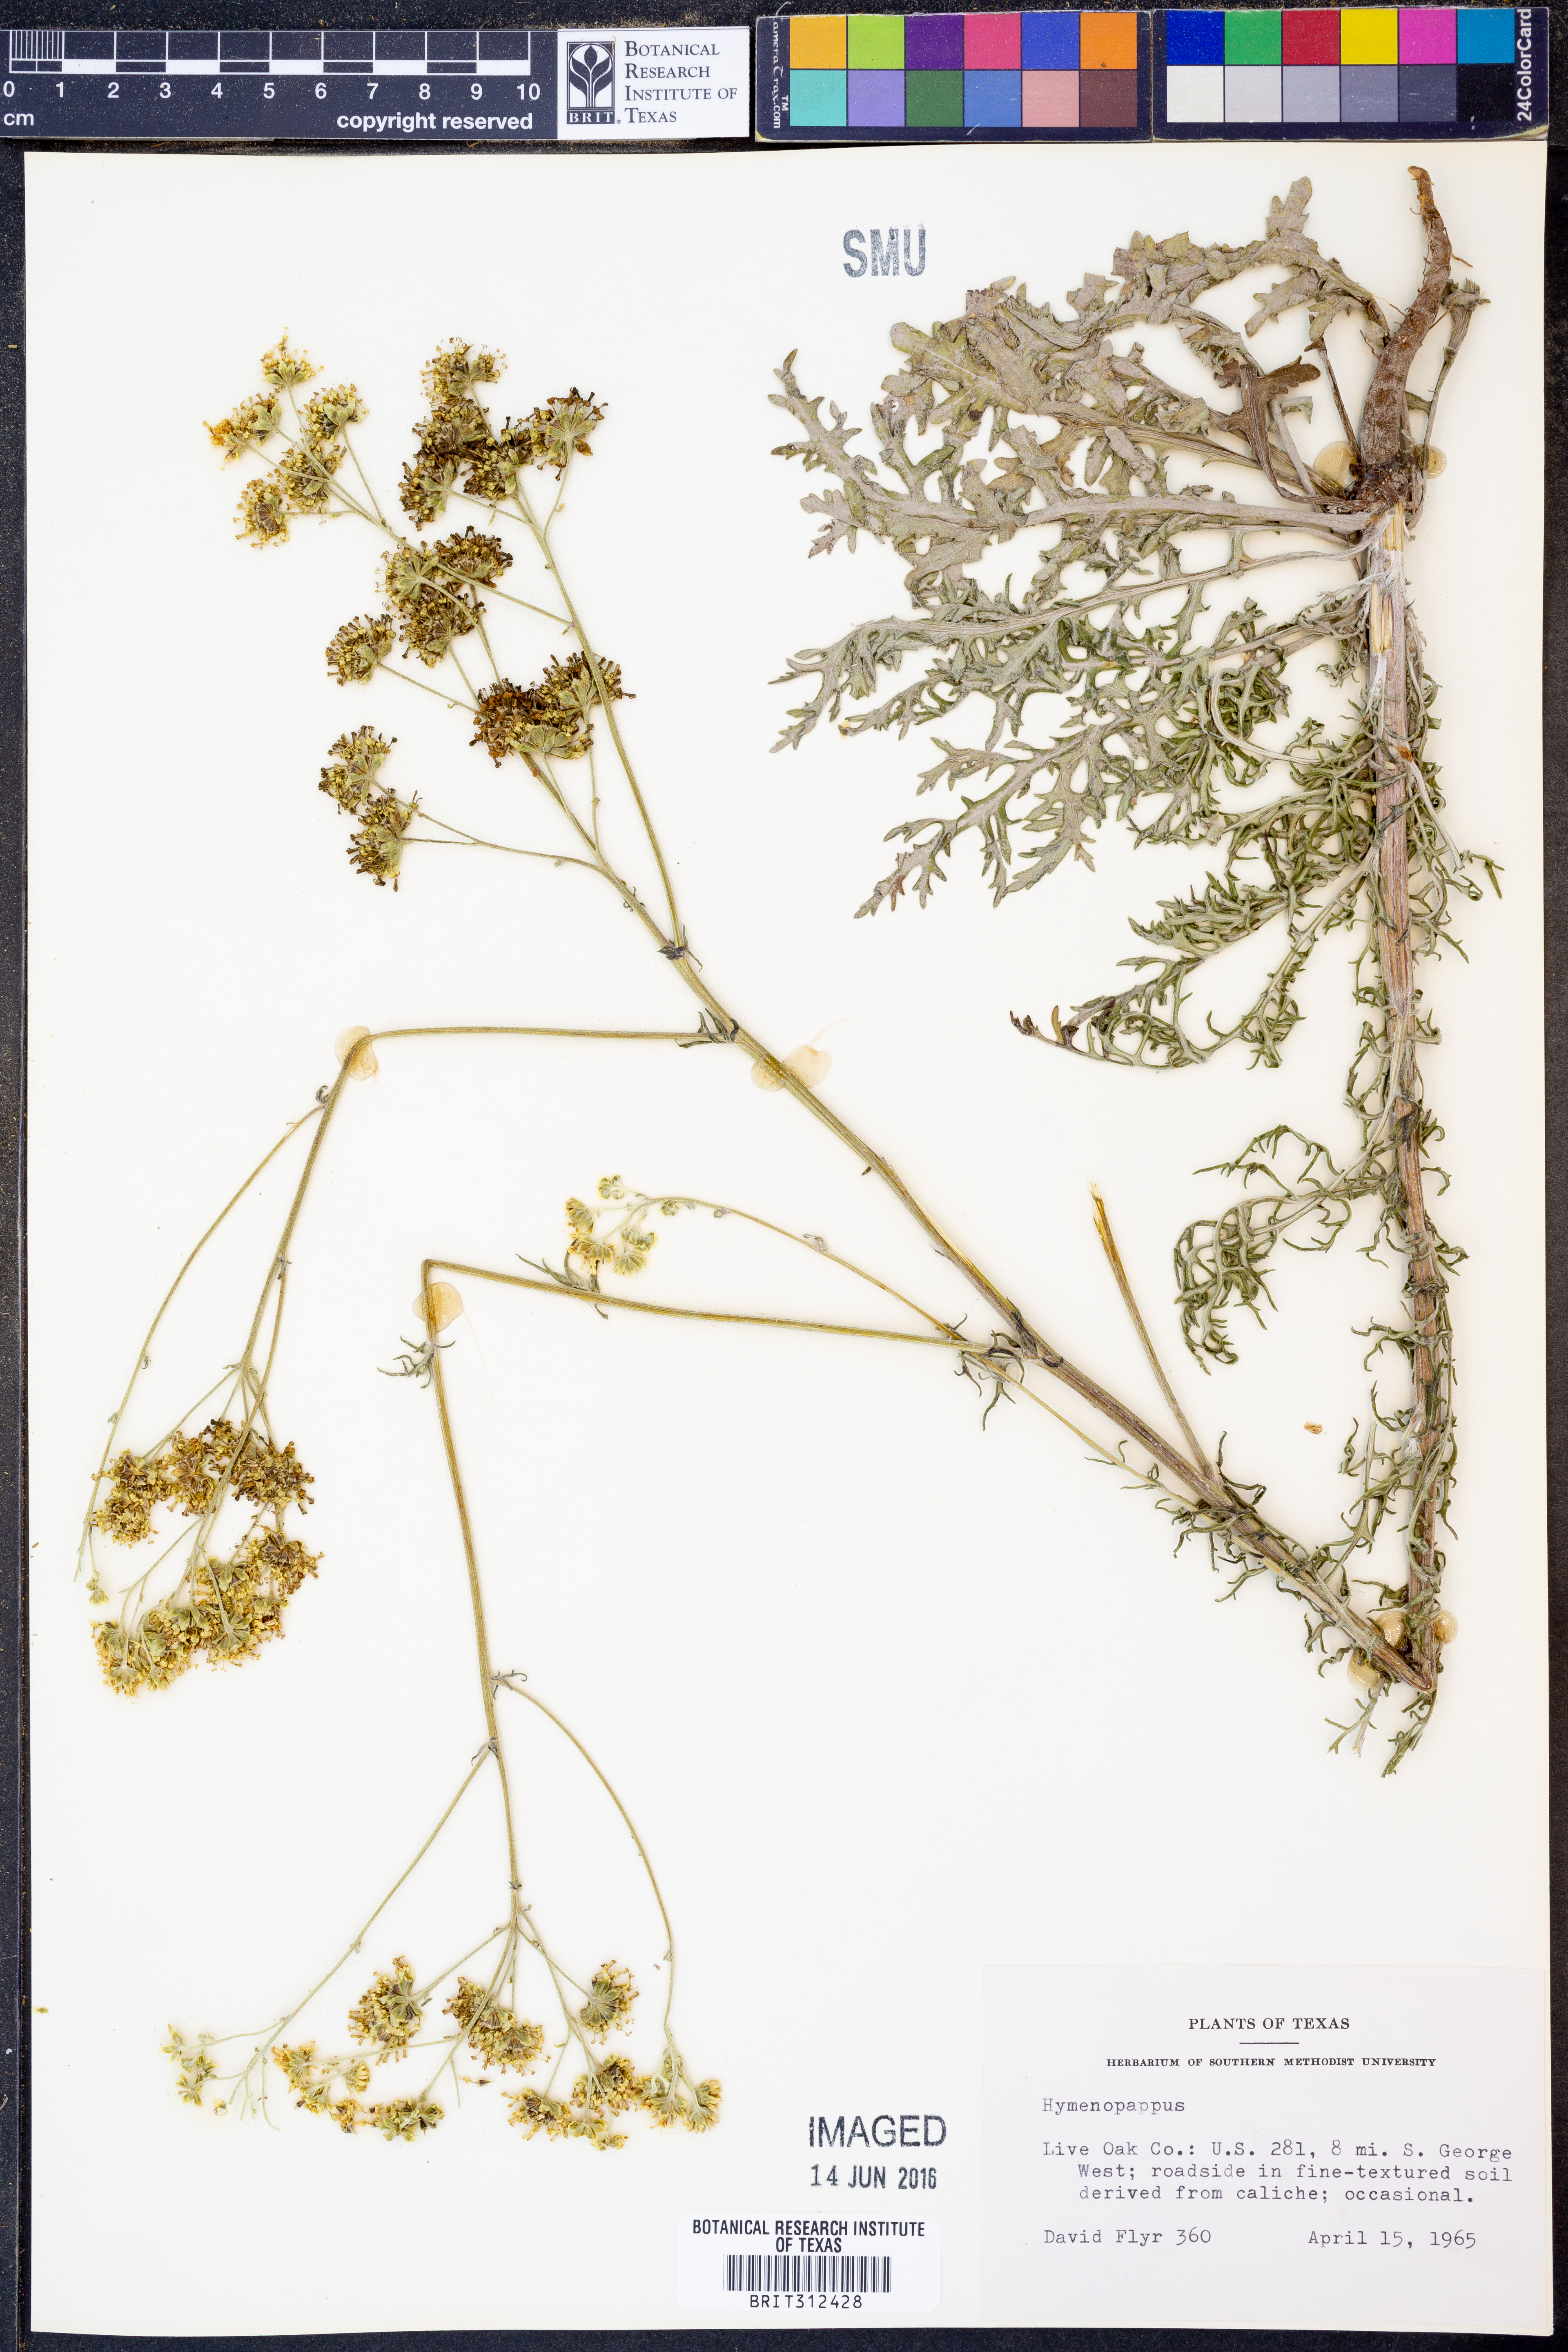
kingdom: Plantae
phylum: Tracheophyta
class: Magnoliopsida
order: Asterales
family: Asteraceae
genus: Hymenopappus
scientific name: Hymenopappus
